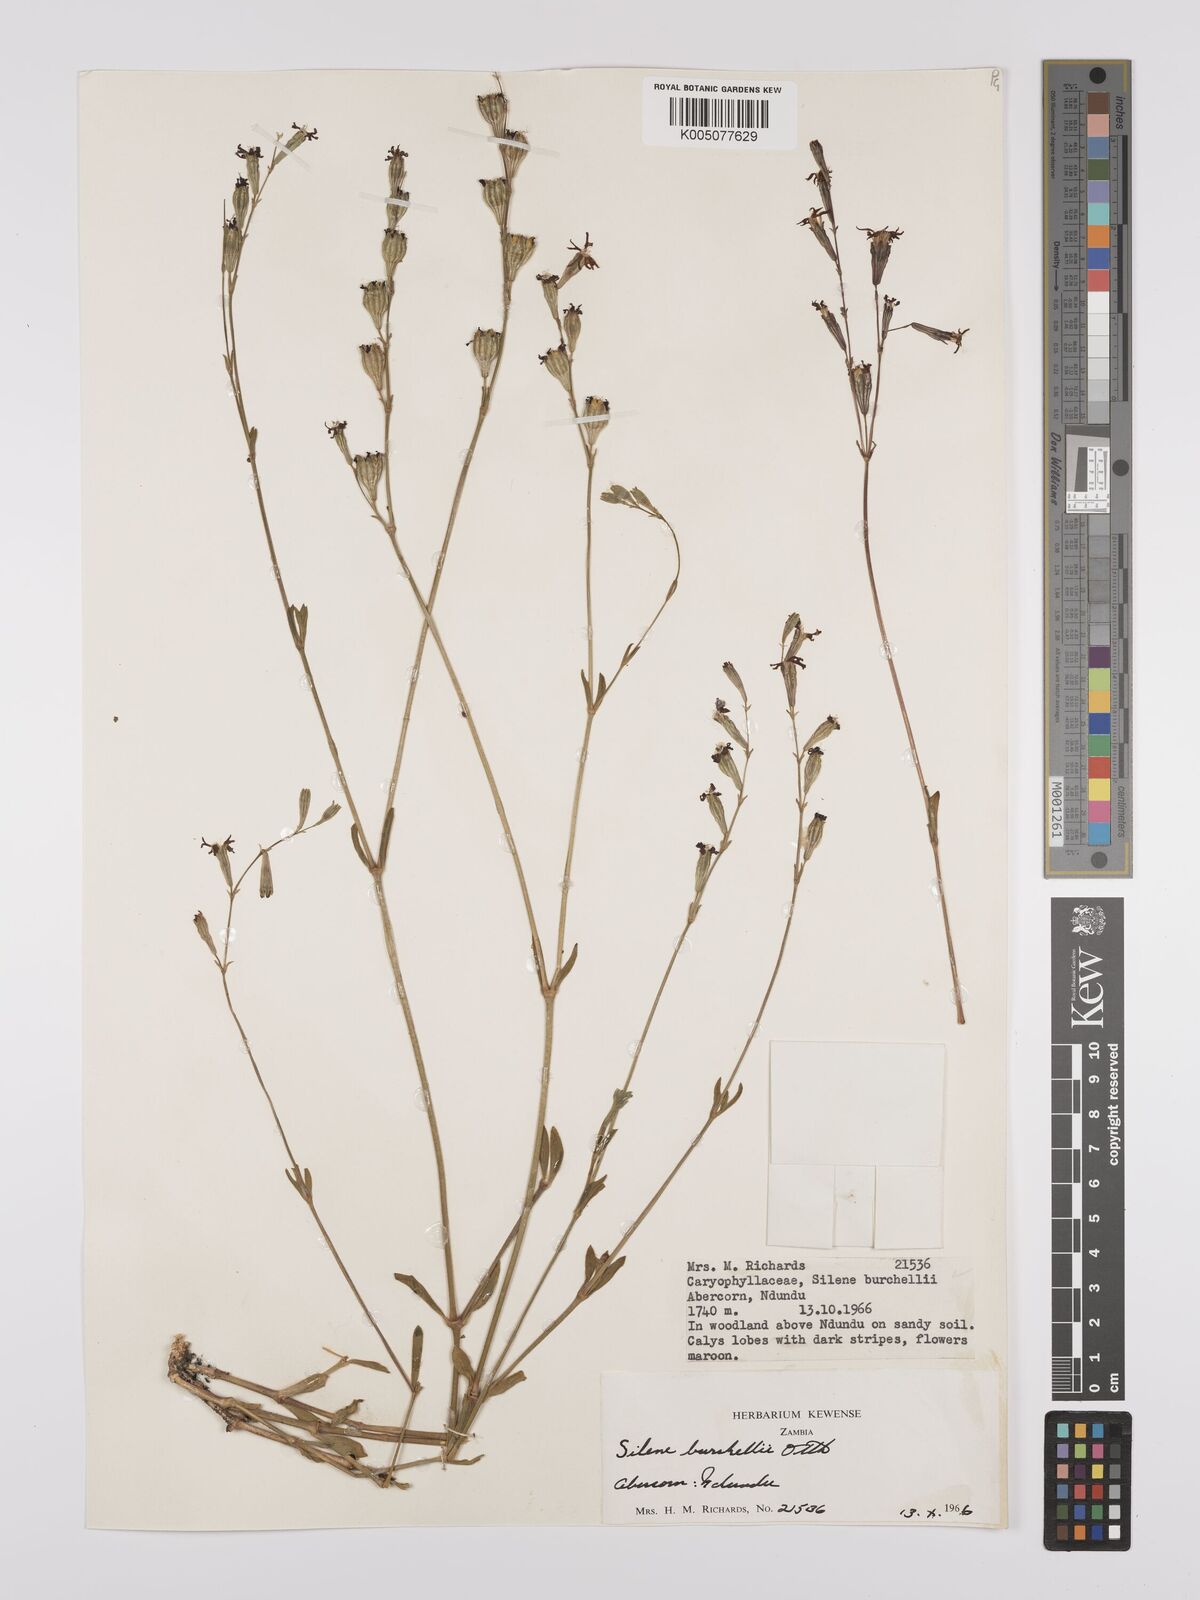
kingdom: Plantae
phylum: Tracheophyta
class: Magnoliopsida
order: Caryophyllales
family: Caryophyllaceae
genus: Silene
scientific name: Silene burchellii
